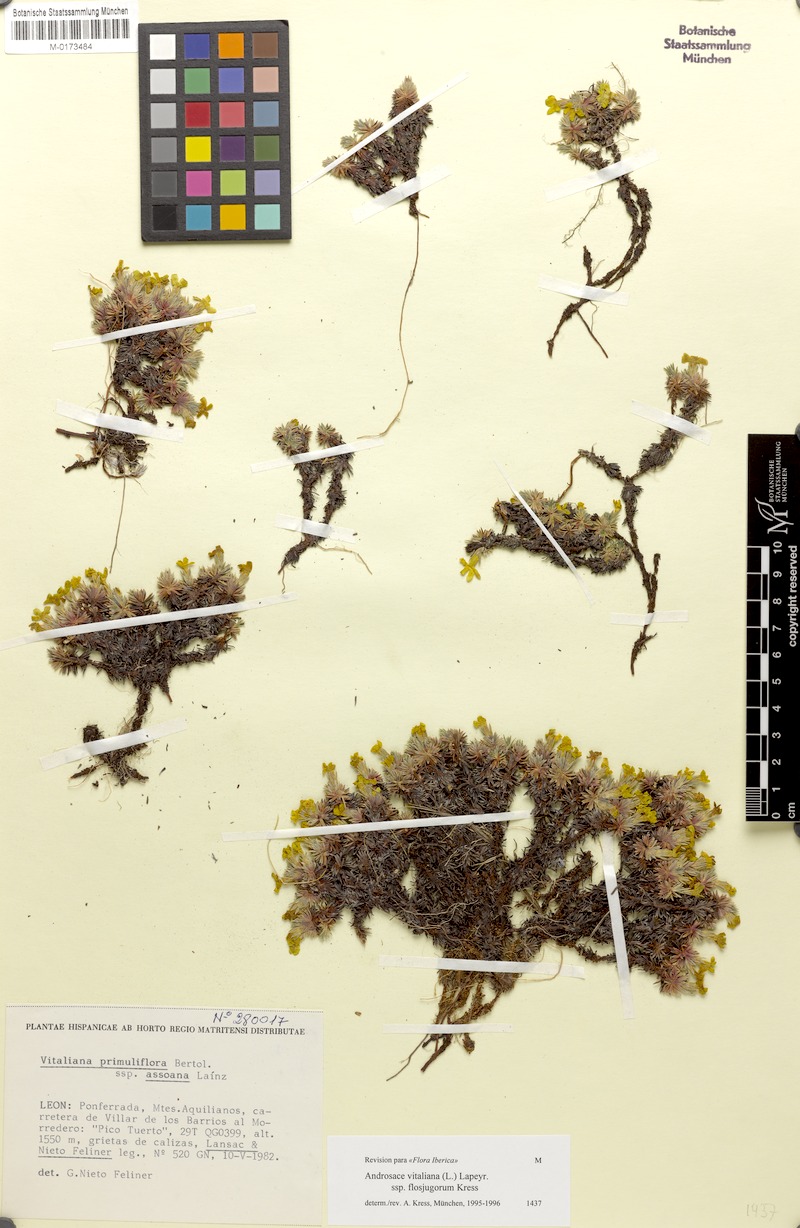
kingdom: Plantae
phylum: Tracheophyta
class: Magnoliopsida
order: Ericales
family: Primulaceae
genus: Androsace
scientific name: Androsace vitaliana
